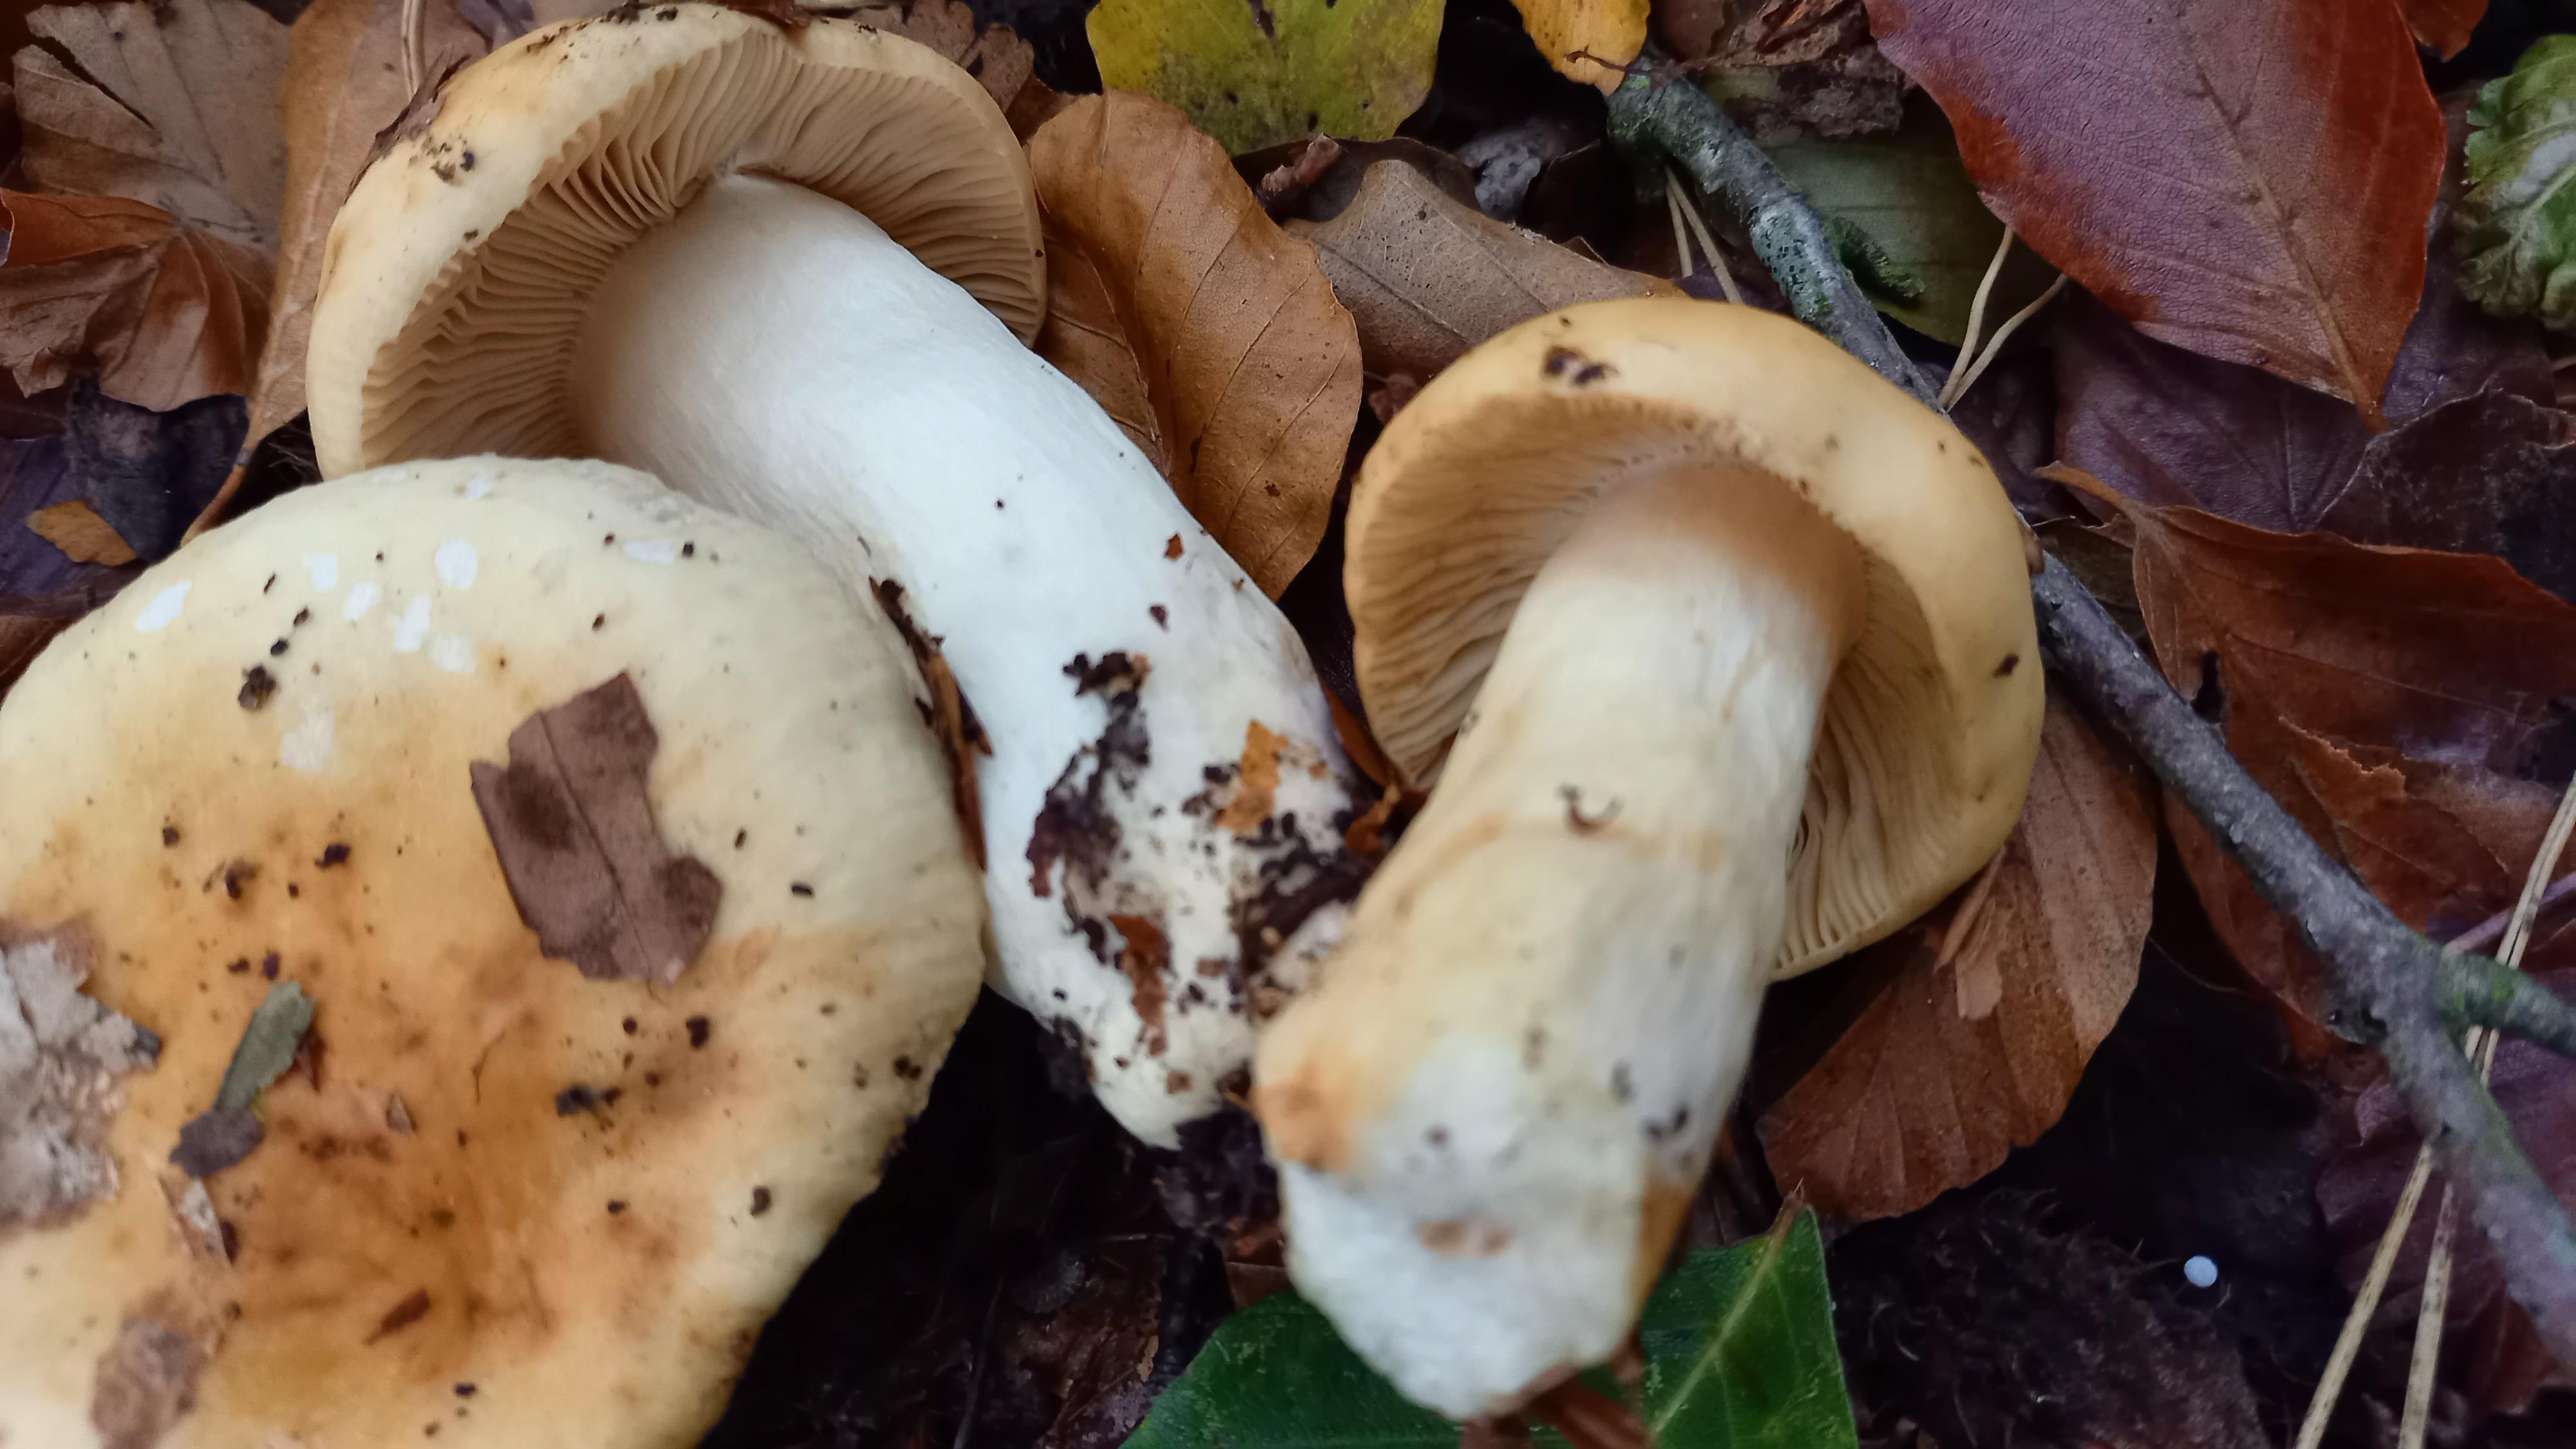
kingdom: Fungi
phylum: Basidiomycota
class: Agaricomycetes
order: Russulales
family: Russulaceae
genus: Russula
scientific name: Russula fellea
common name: galde-skørhat
